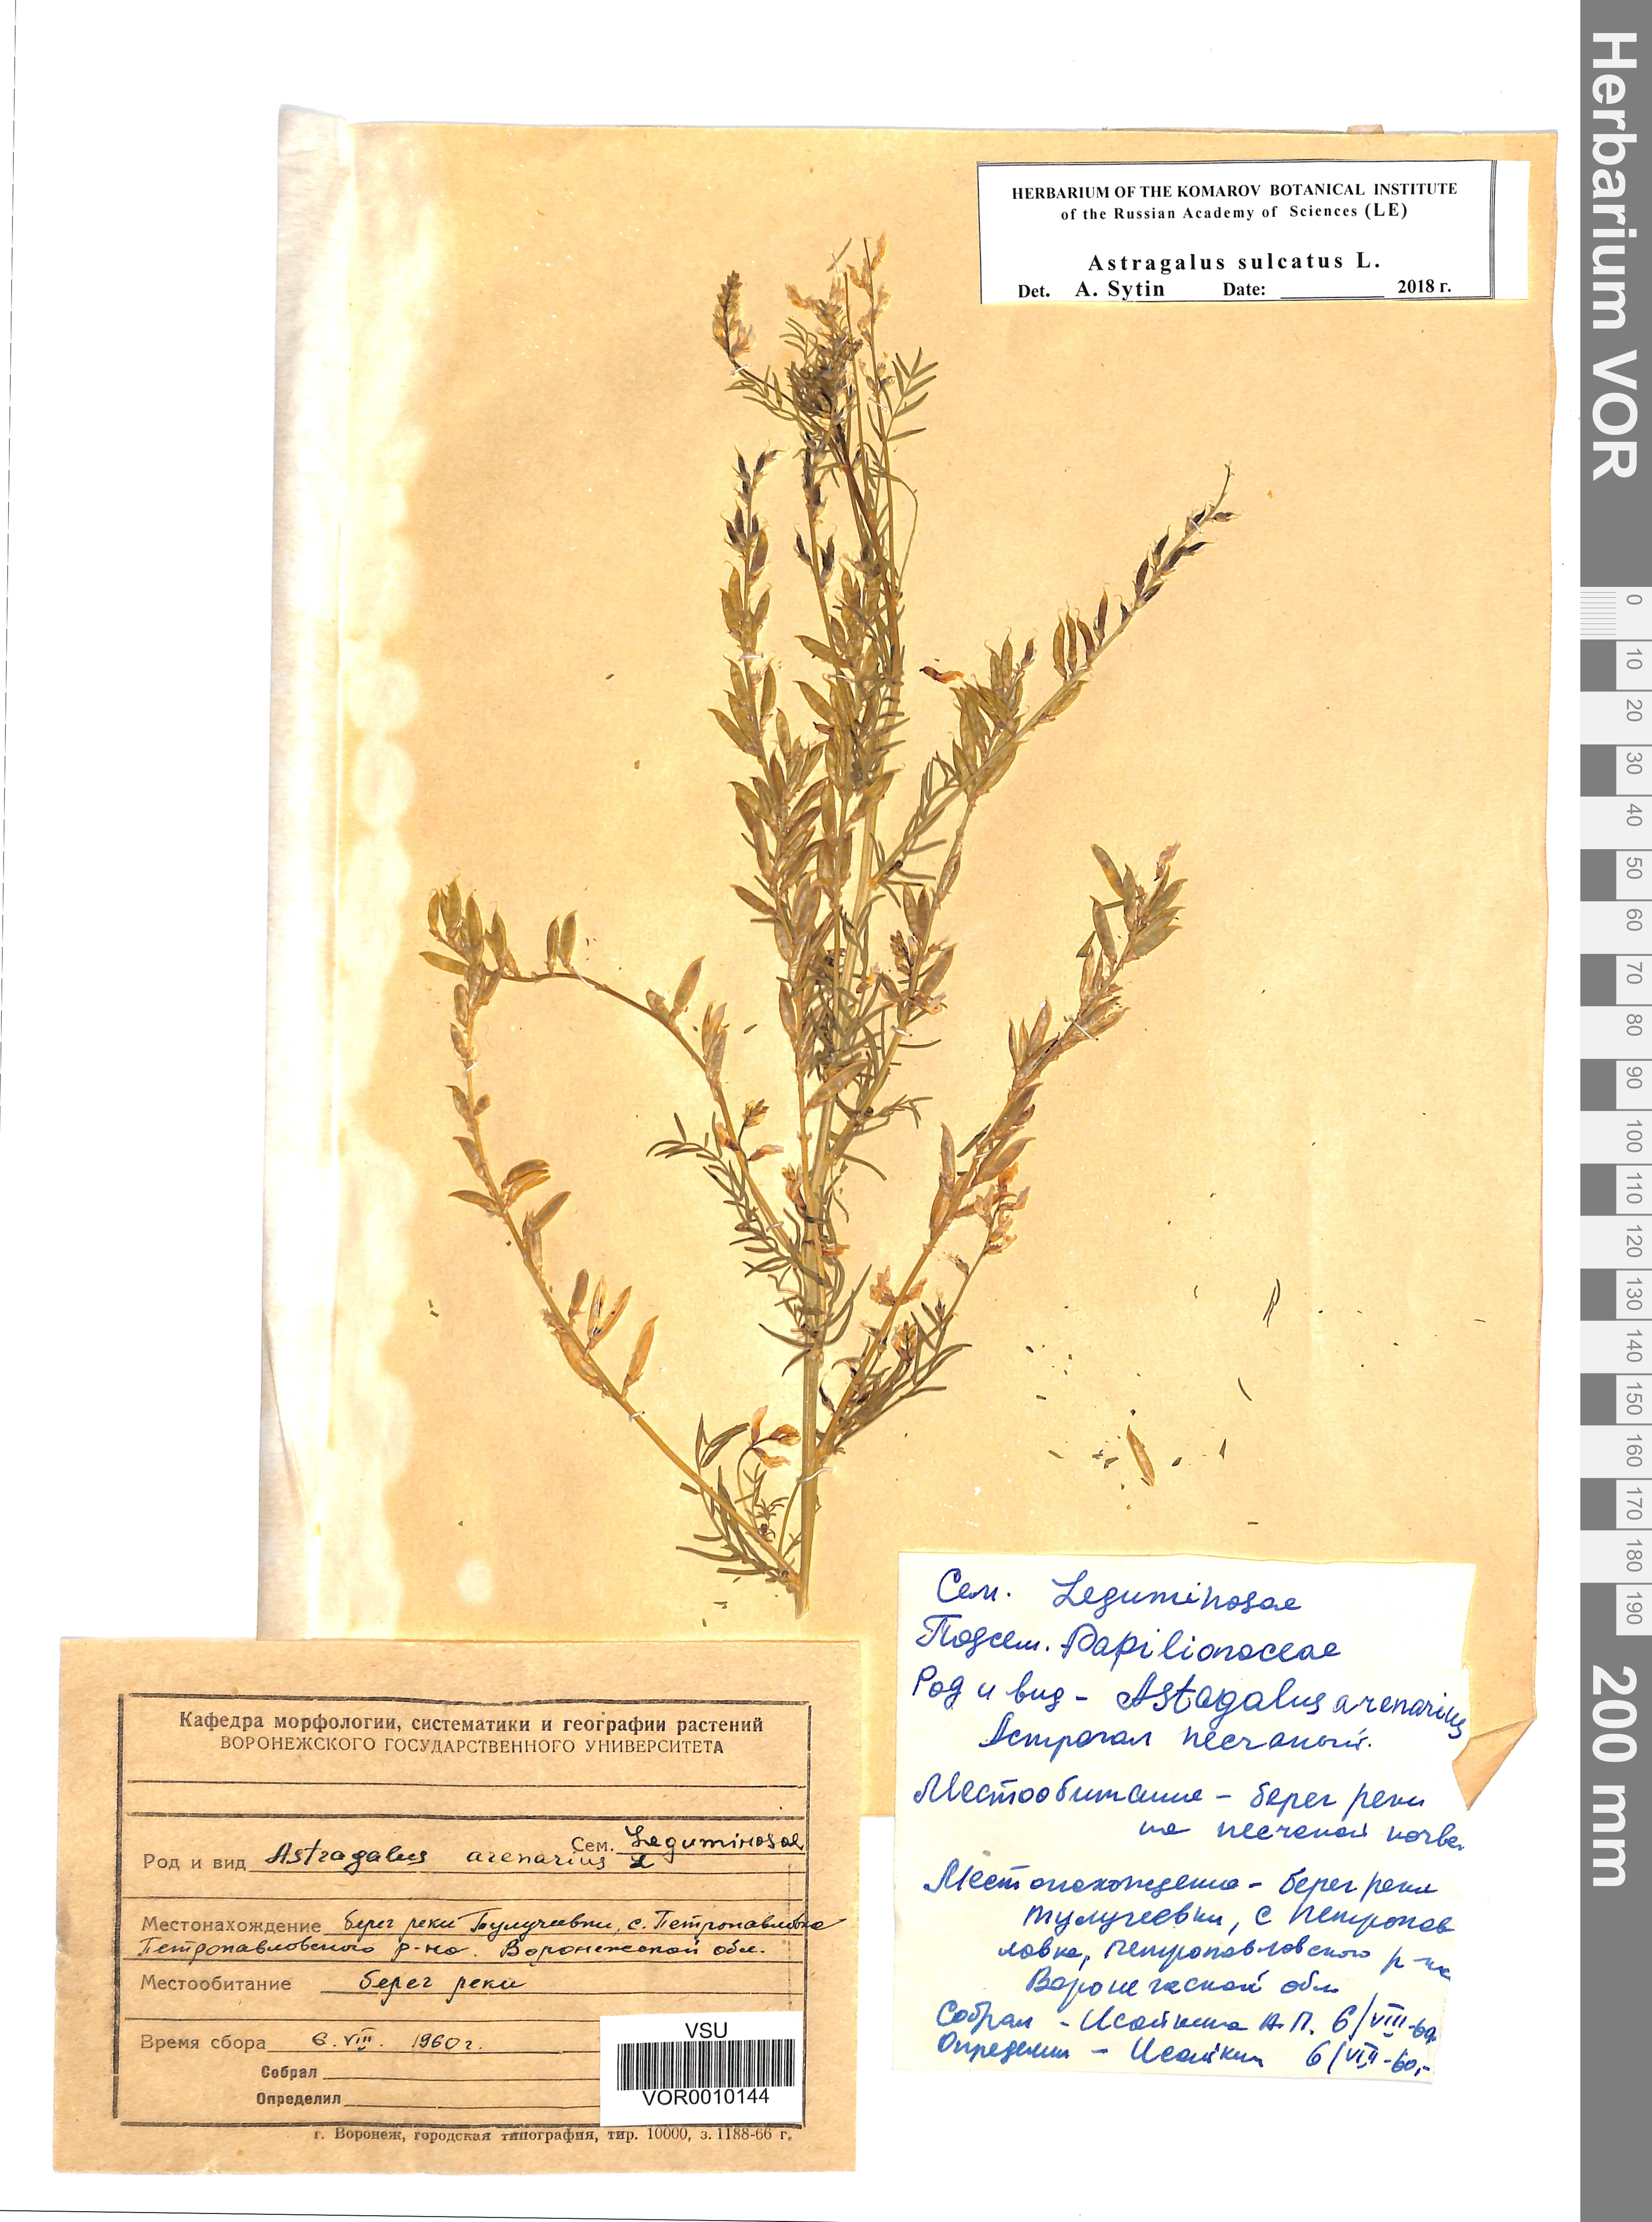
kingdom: Plantae
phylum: Tracheophyta
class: Magnoliopsida
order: Fabales
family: Fabaceae
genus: Astragalus
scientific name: Astragalus sulcatus
